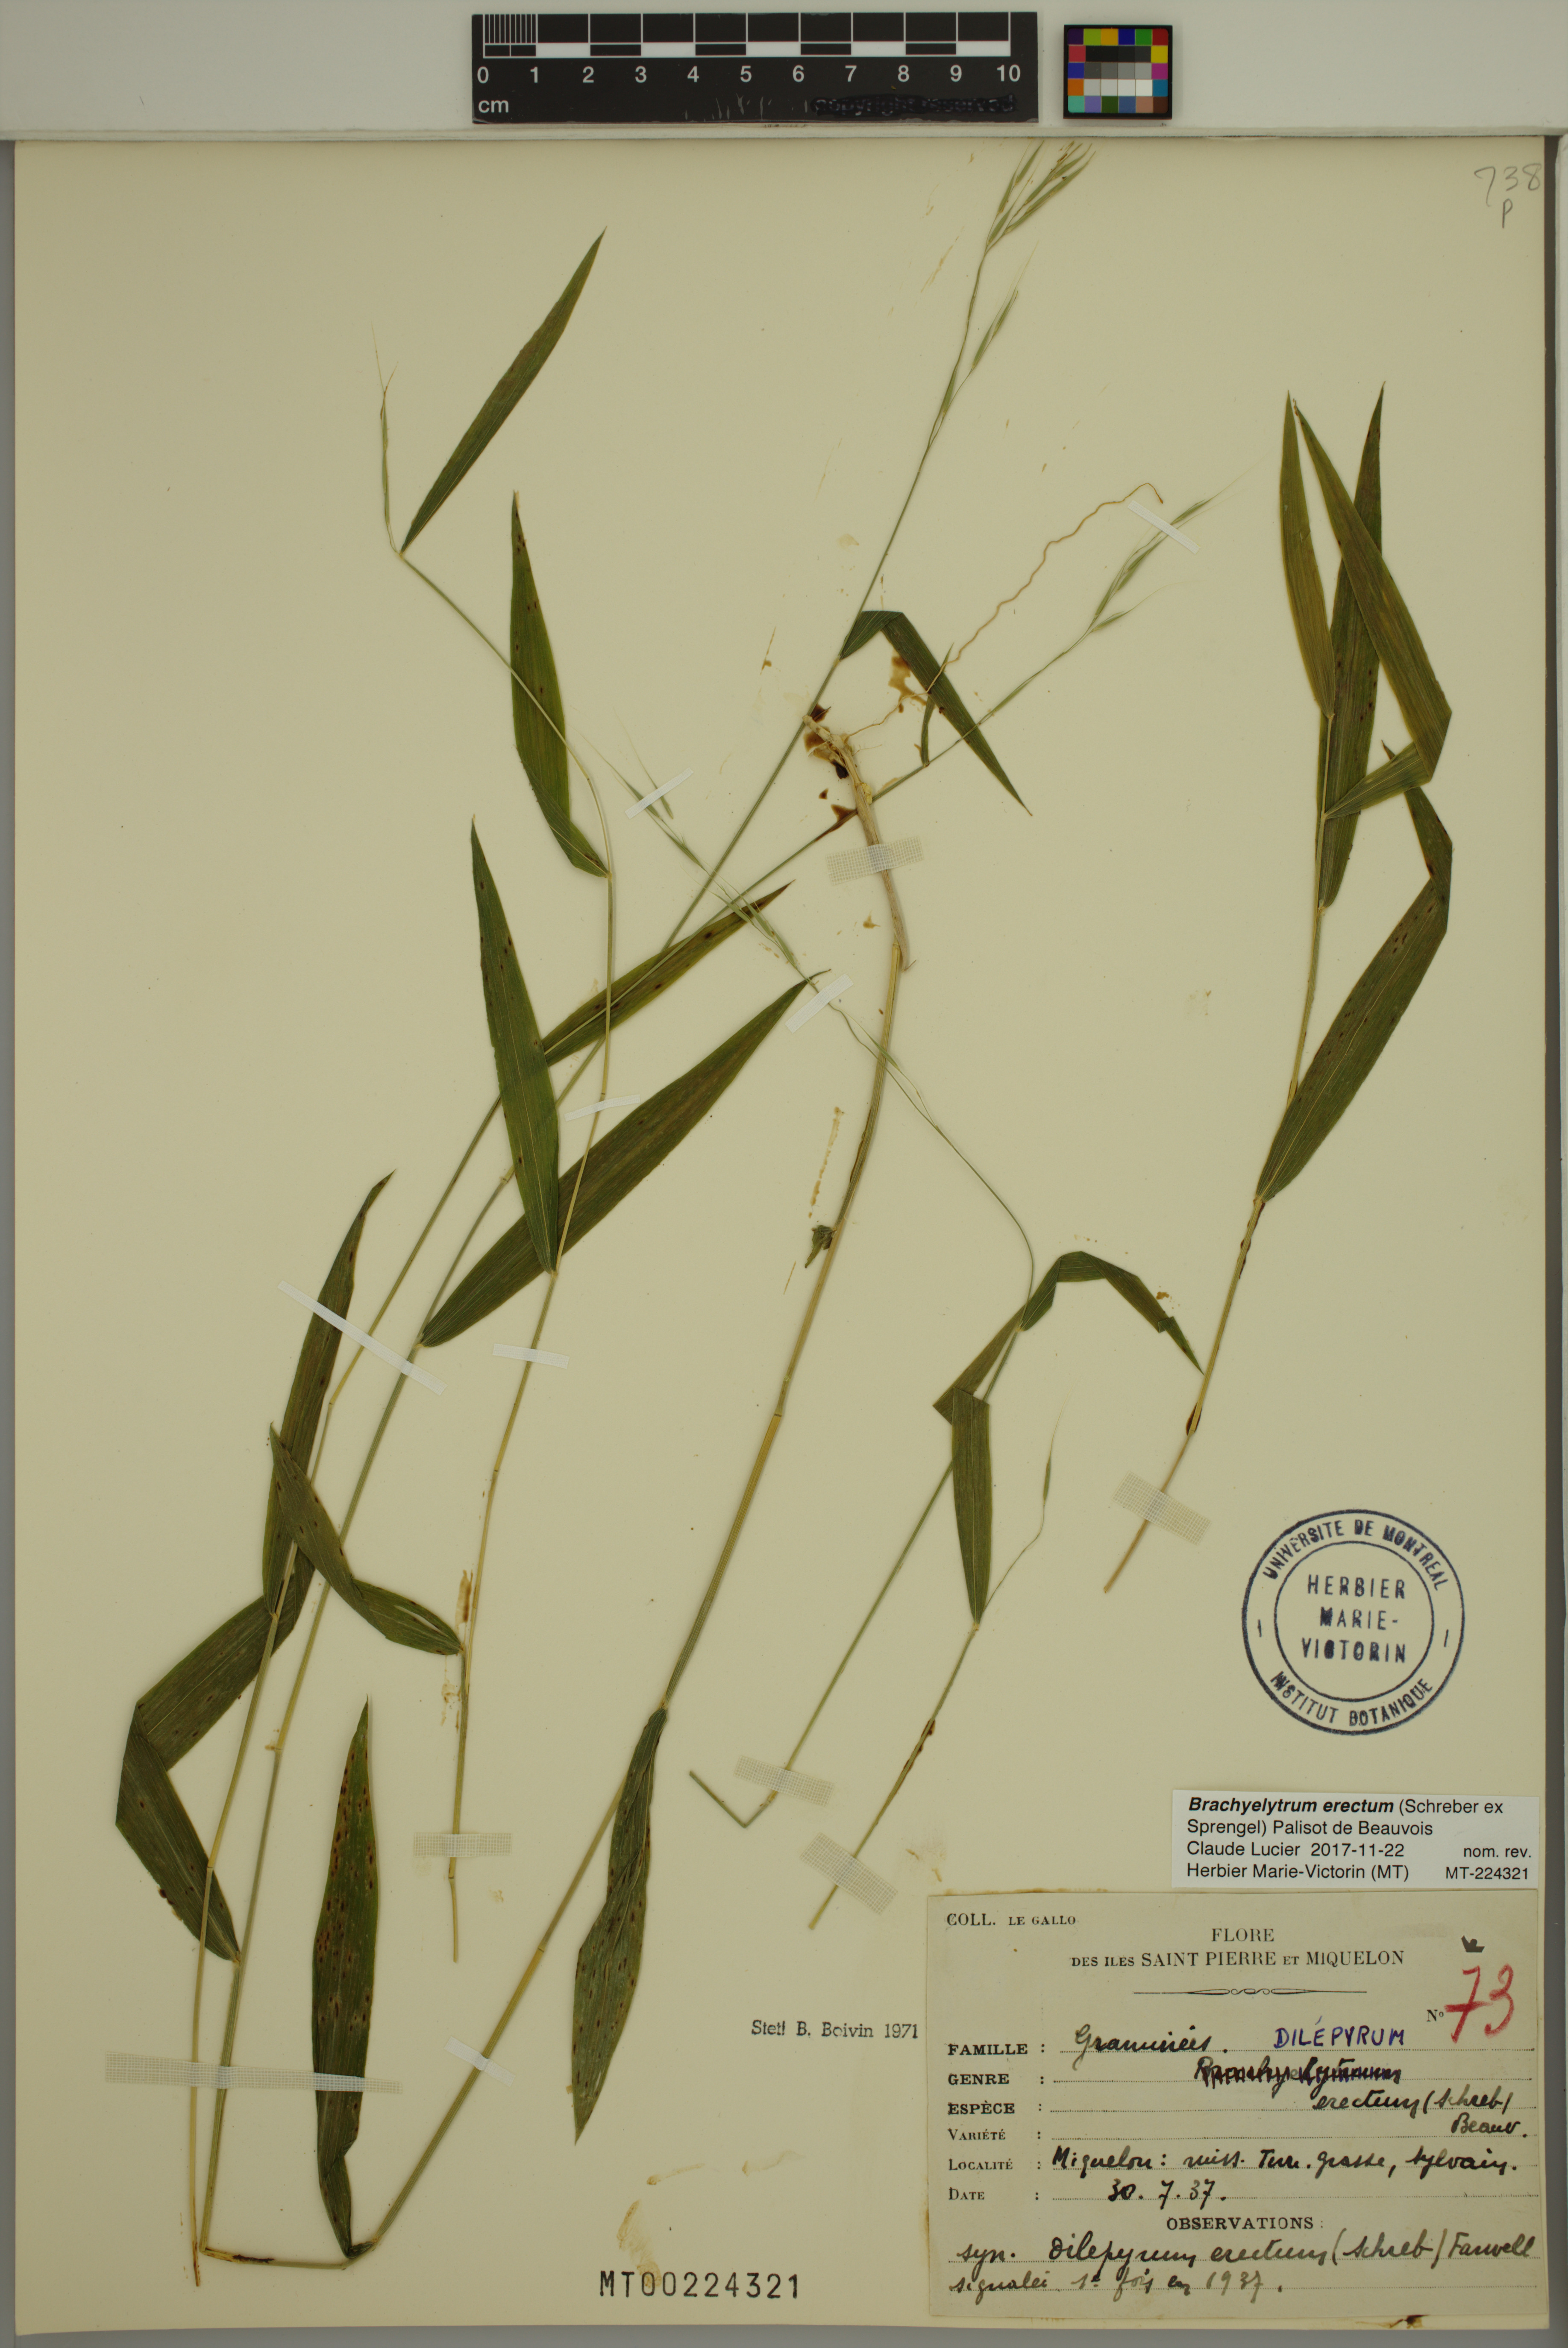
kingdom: Plantae
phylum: Tracheophyta
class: Liliopsida
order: Poales
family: Poaceae
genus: Brachyelytrum
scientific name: Brachyelytrum erectum
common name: Bearded shorthusk
